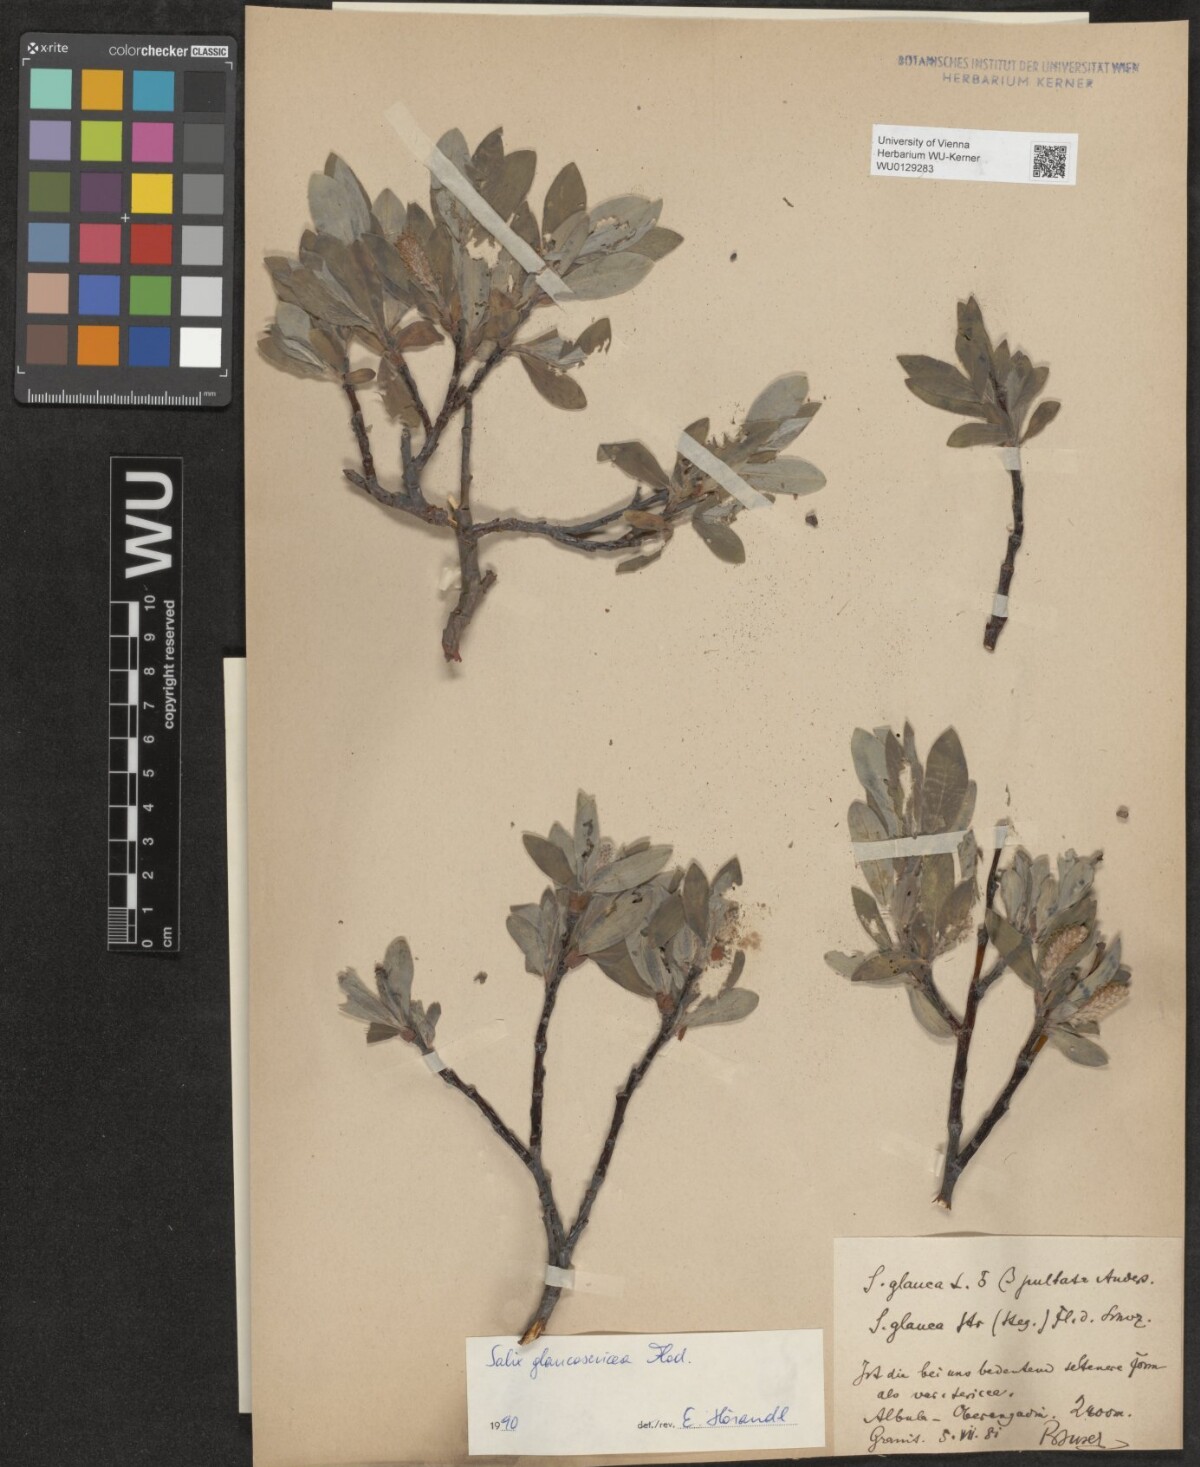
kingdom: Plantae
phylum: Tracheophyta
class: Magnoliopsida
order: Malpighiales
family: Salicaceae
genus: Salix
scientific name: Salix glauca
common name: Glaucous willow
